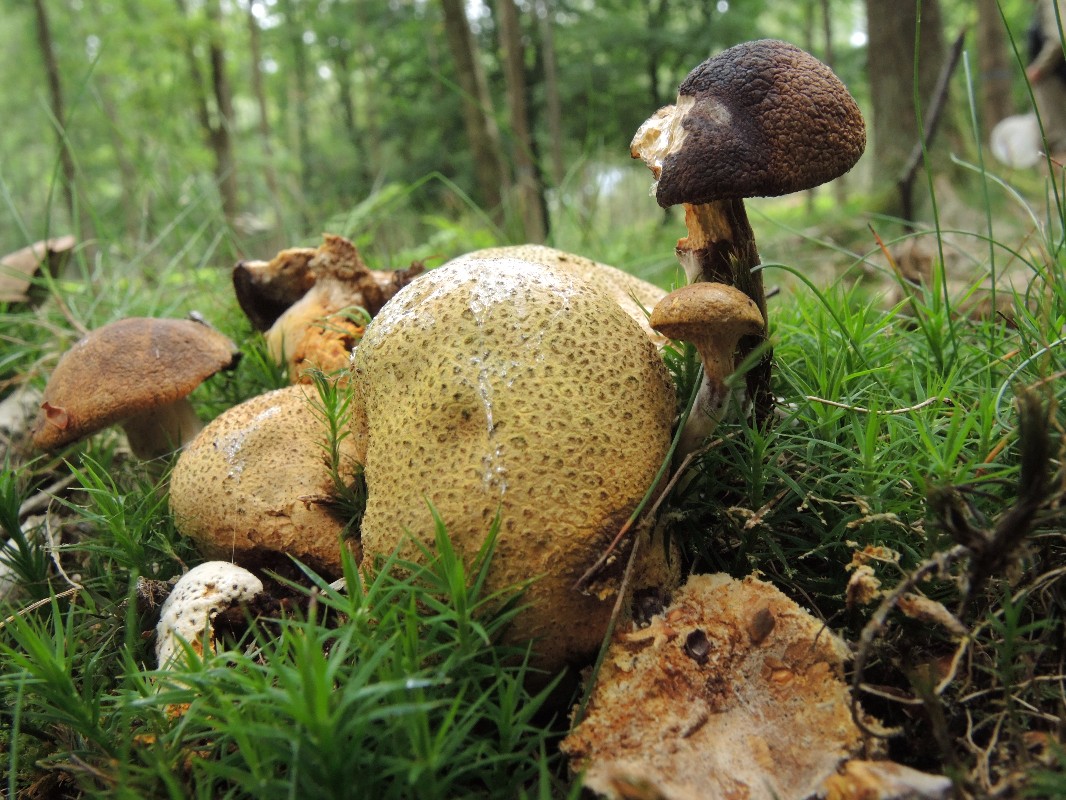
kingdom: Fungi
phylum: Basidiomycota
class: Agaricomycetes
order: Boletales
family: Boletaceae
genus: Pseudoboletus
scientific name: Pseudoboletus parasiticus
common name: snyltende rørhat
